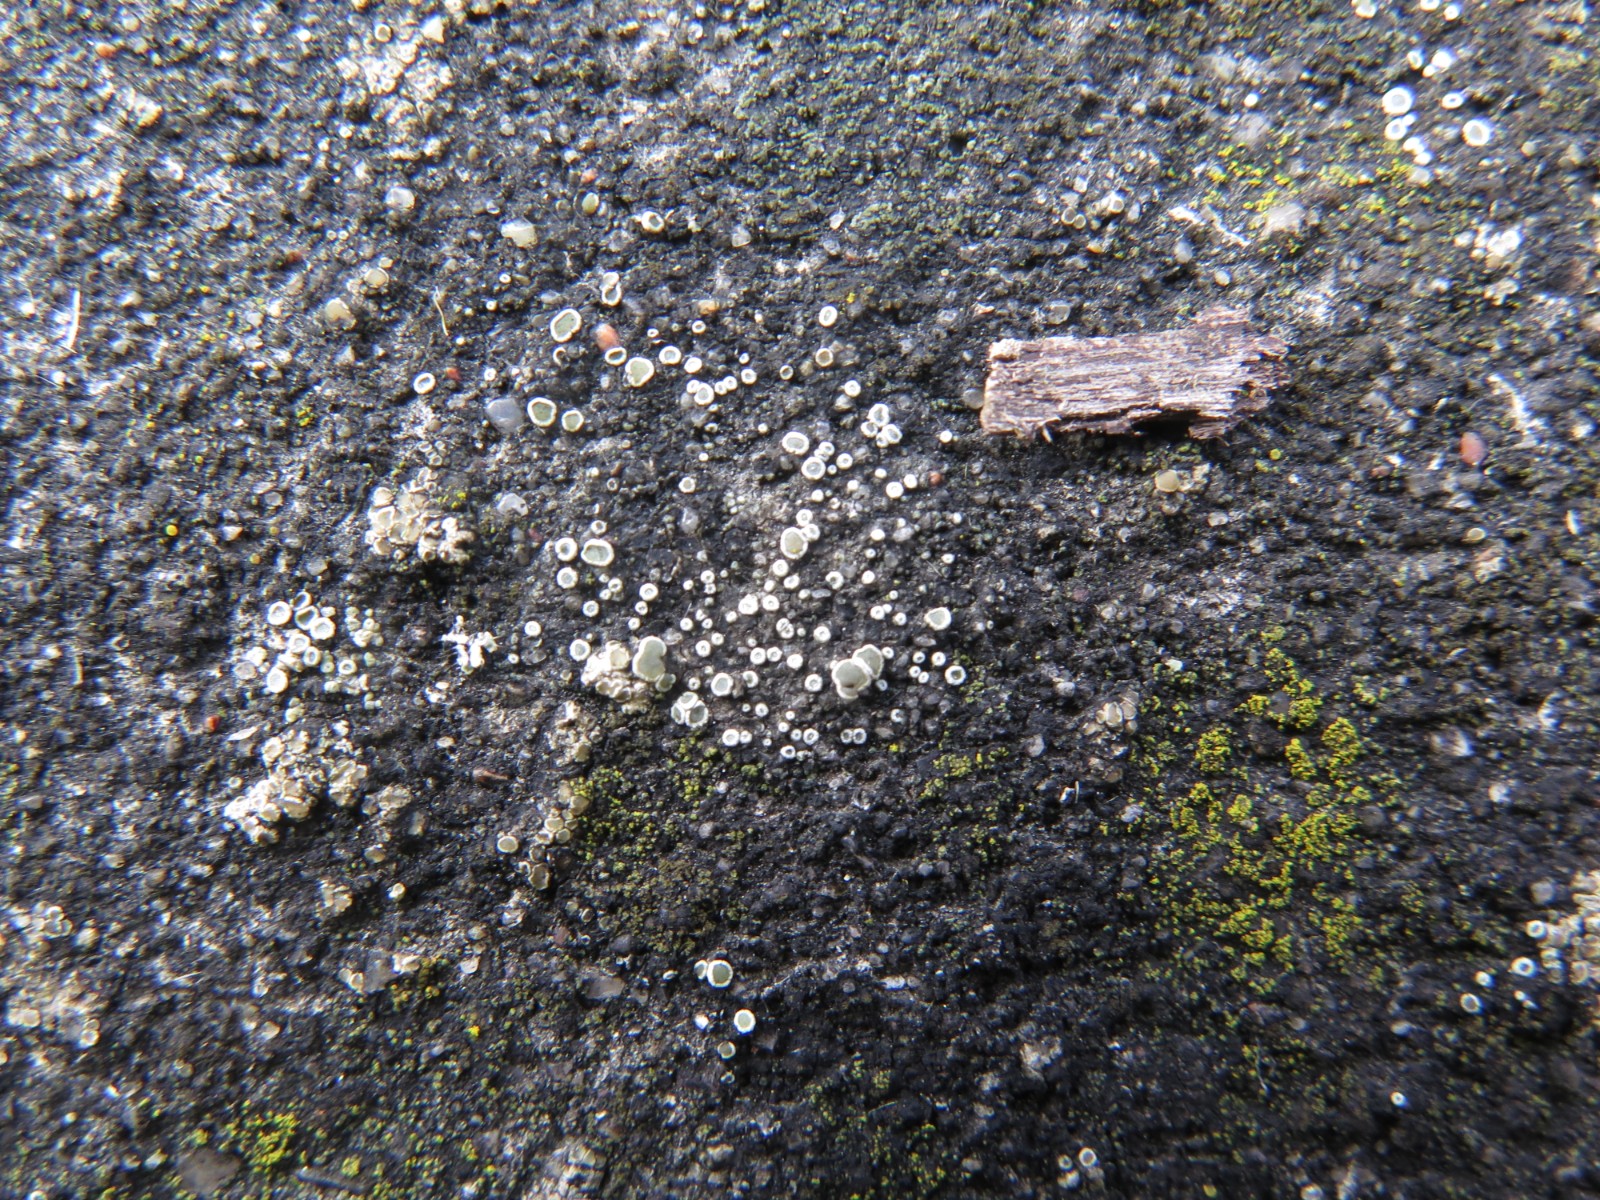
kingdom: Fungi
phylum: Ascomycota
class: Lecanoromycetes
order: Lecanorales
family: Lecanoraceae
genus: Polyozosia
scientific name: Polyozosia dispersa
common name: spredt kantskivelav
